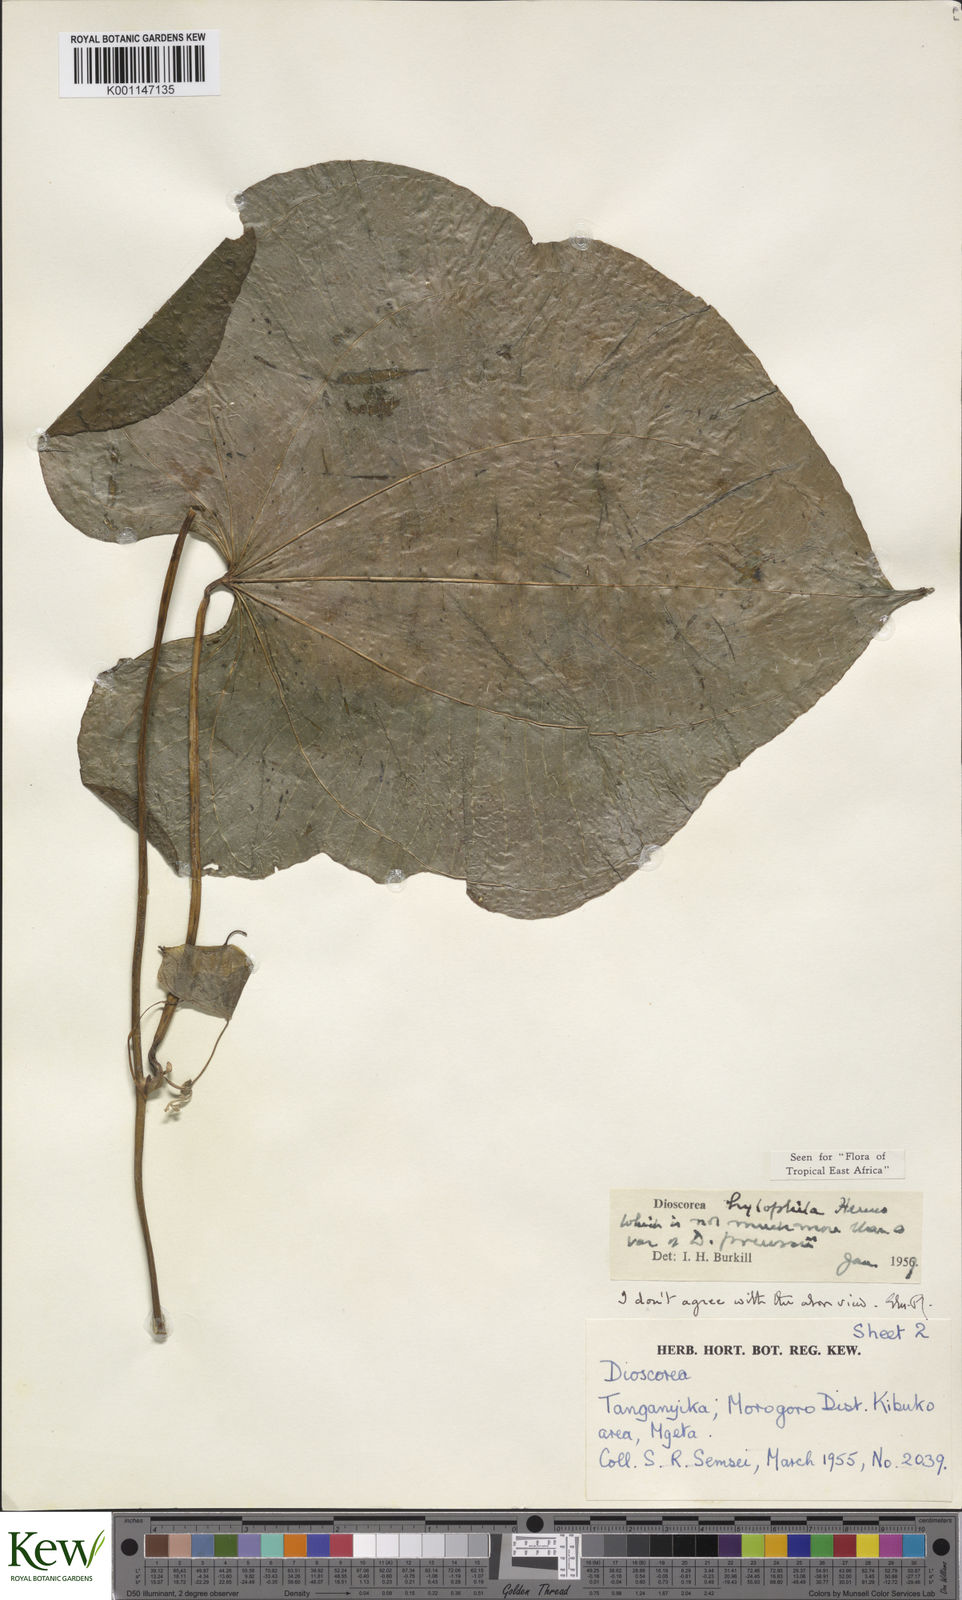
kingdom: Plantae
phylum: Tracheophyta
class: Liliopsida
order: Dioscoreales
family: Dioscoreaceae
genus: Dioscorea
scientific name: Dioscorea
